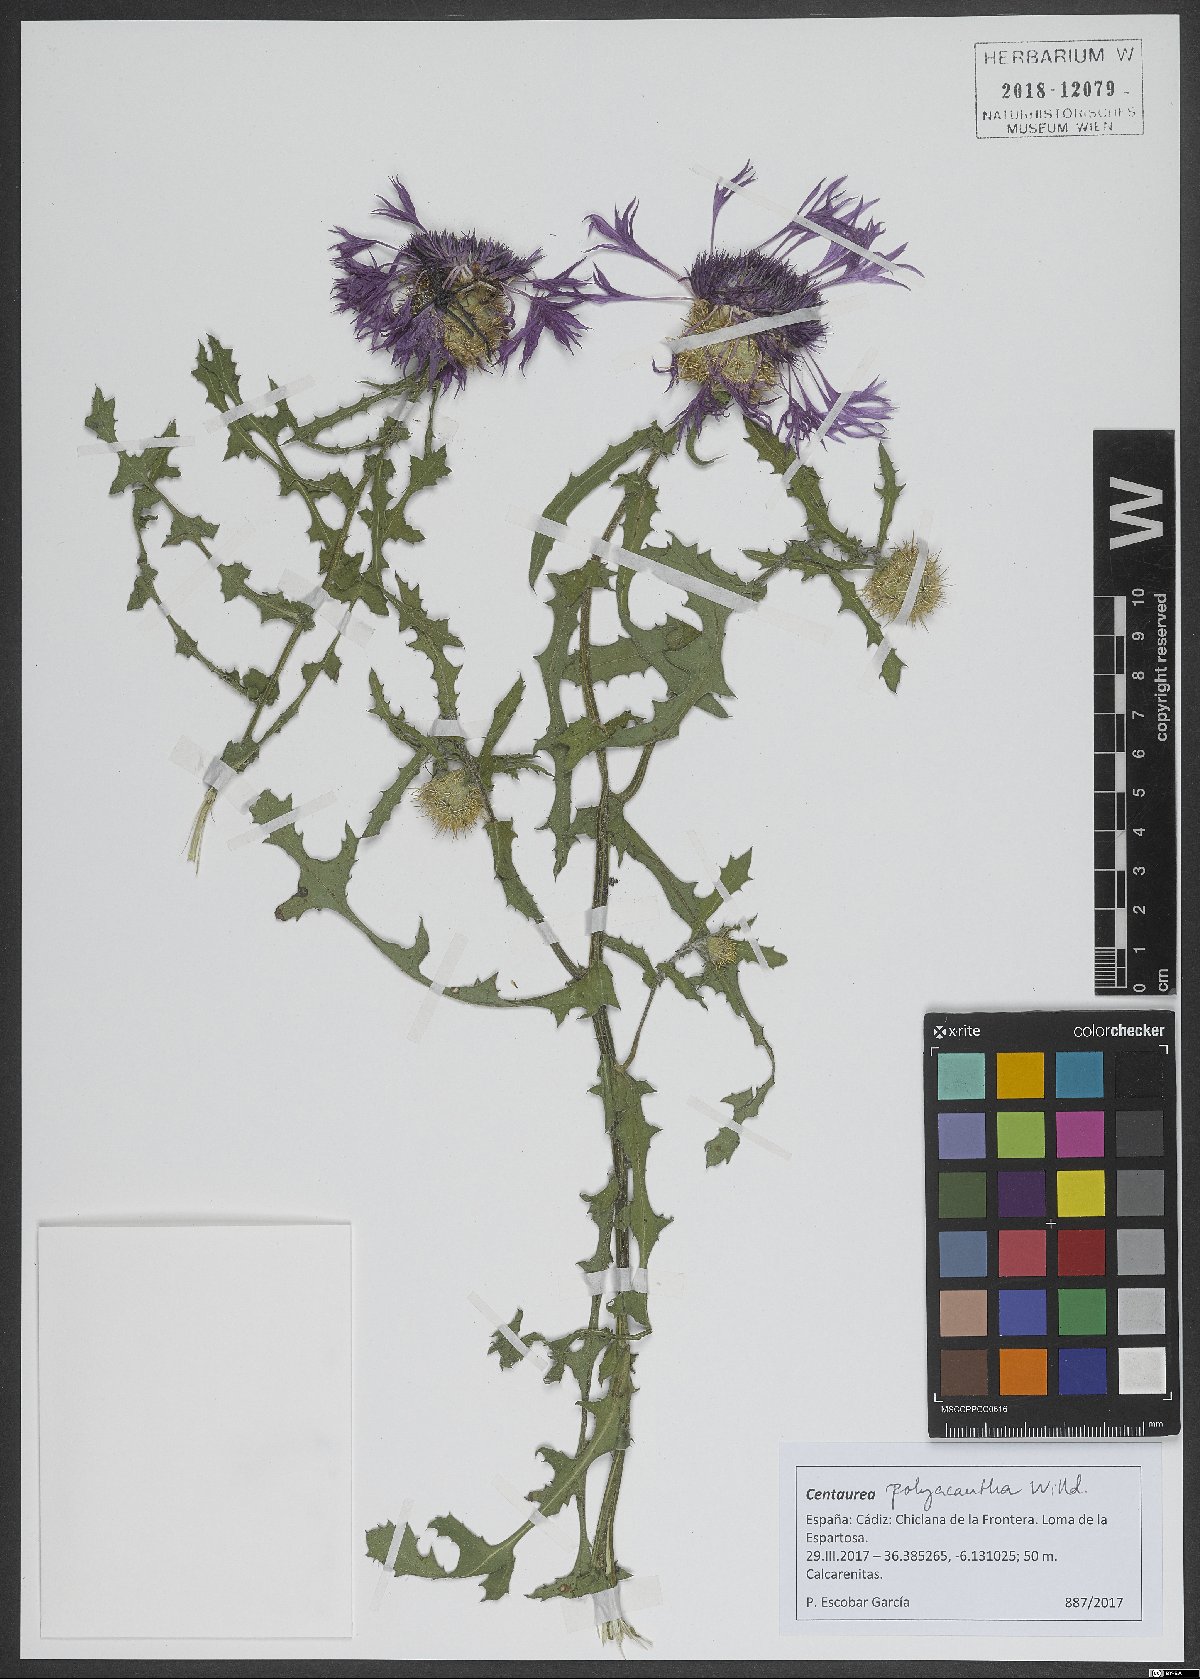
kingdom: Plantae
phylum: Tracheophyta
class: Magnoliopsida
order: Asterales
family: Asteraceae
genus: Centaurea
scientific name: Centaurea polyacantha
